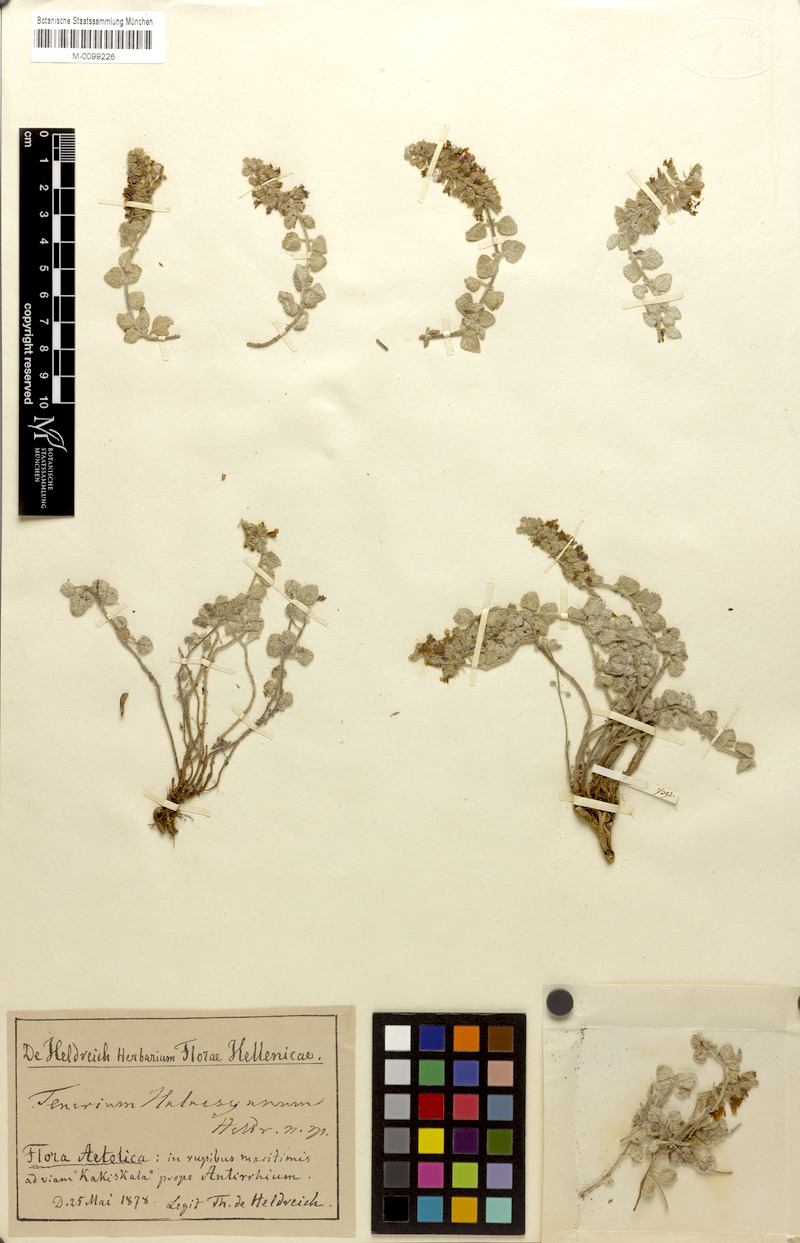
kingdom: Plantae
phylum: Tracheophyta
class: Magnoliopsida
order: Lamiales
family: Lamiaceae
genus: Teucrium
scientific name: Teucrium halacsyanum
